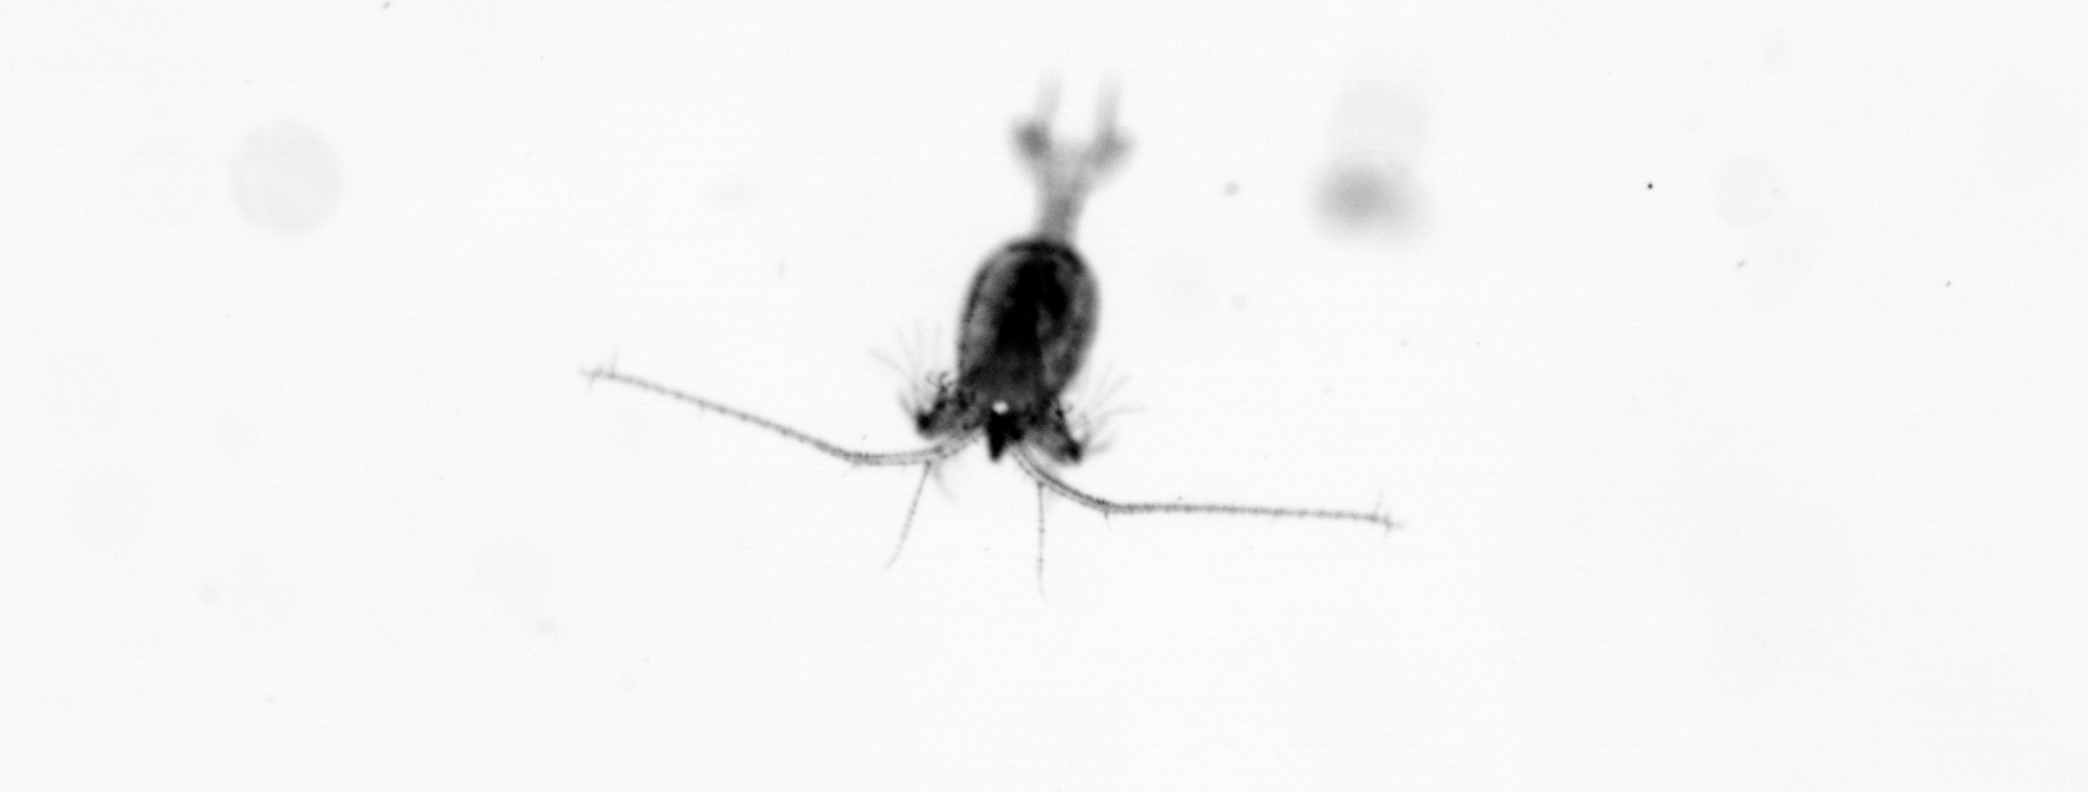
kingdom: Animalia
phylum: Arthropoda
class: Copepoda
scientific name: Copepoda
